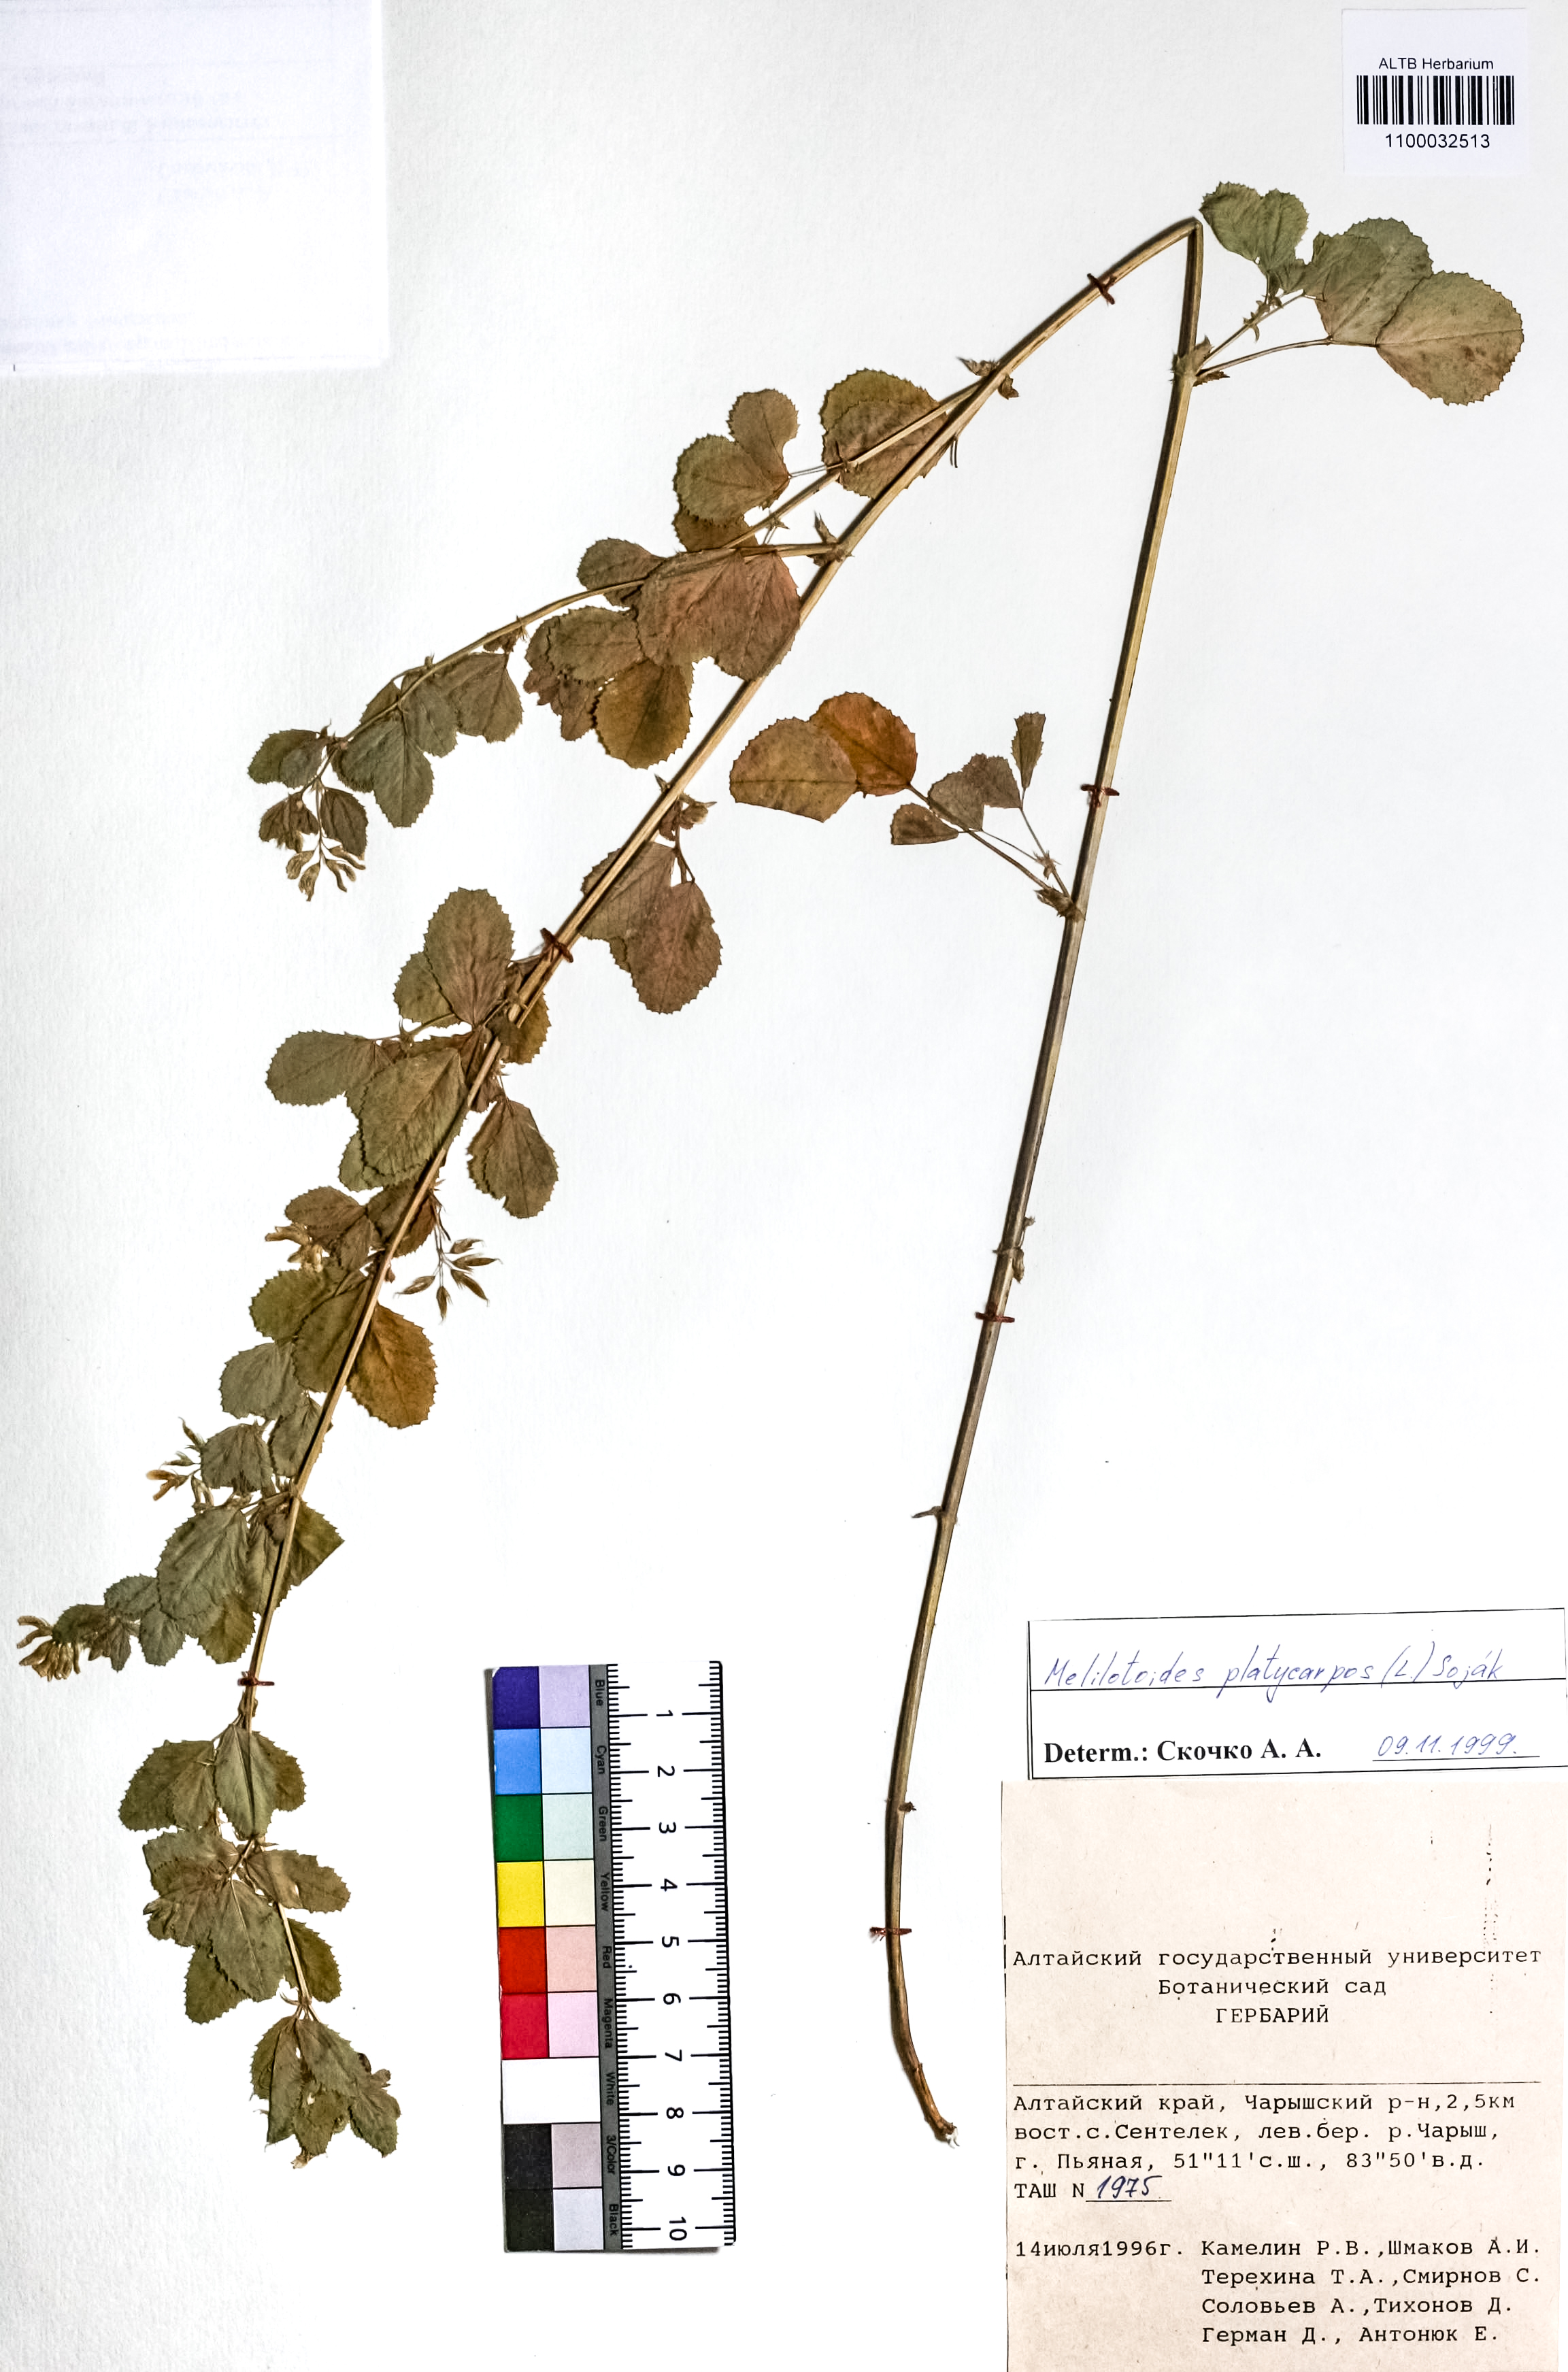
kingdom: Plantae
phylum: Tracheophyta
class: Magnoliopsida
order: Fabales
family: Fabaceae
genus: Medicago
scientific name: Medicago platycarpos
